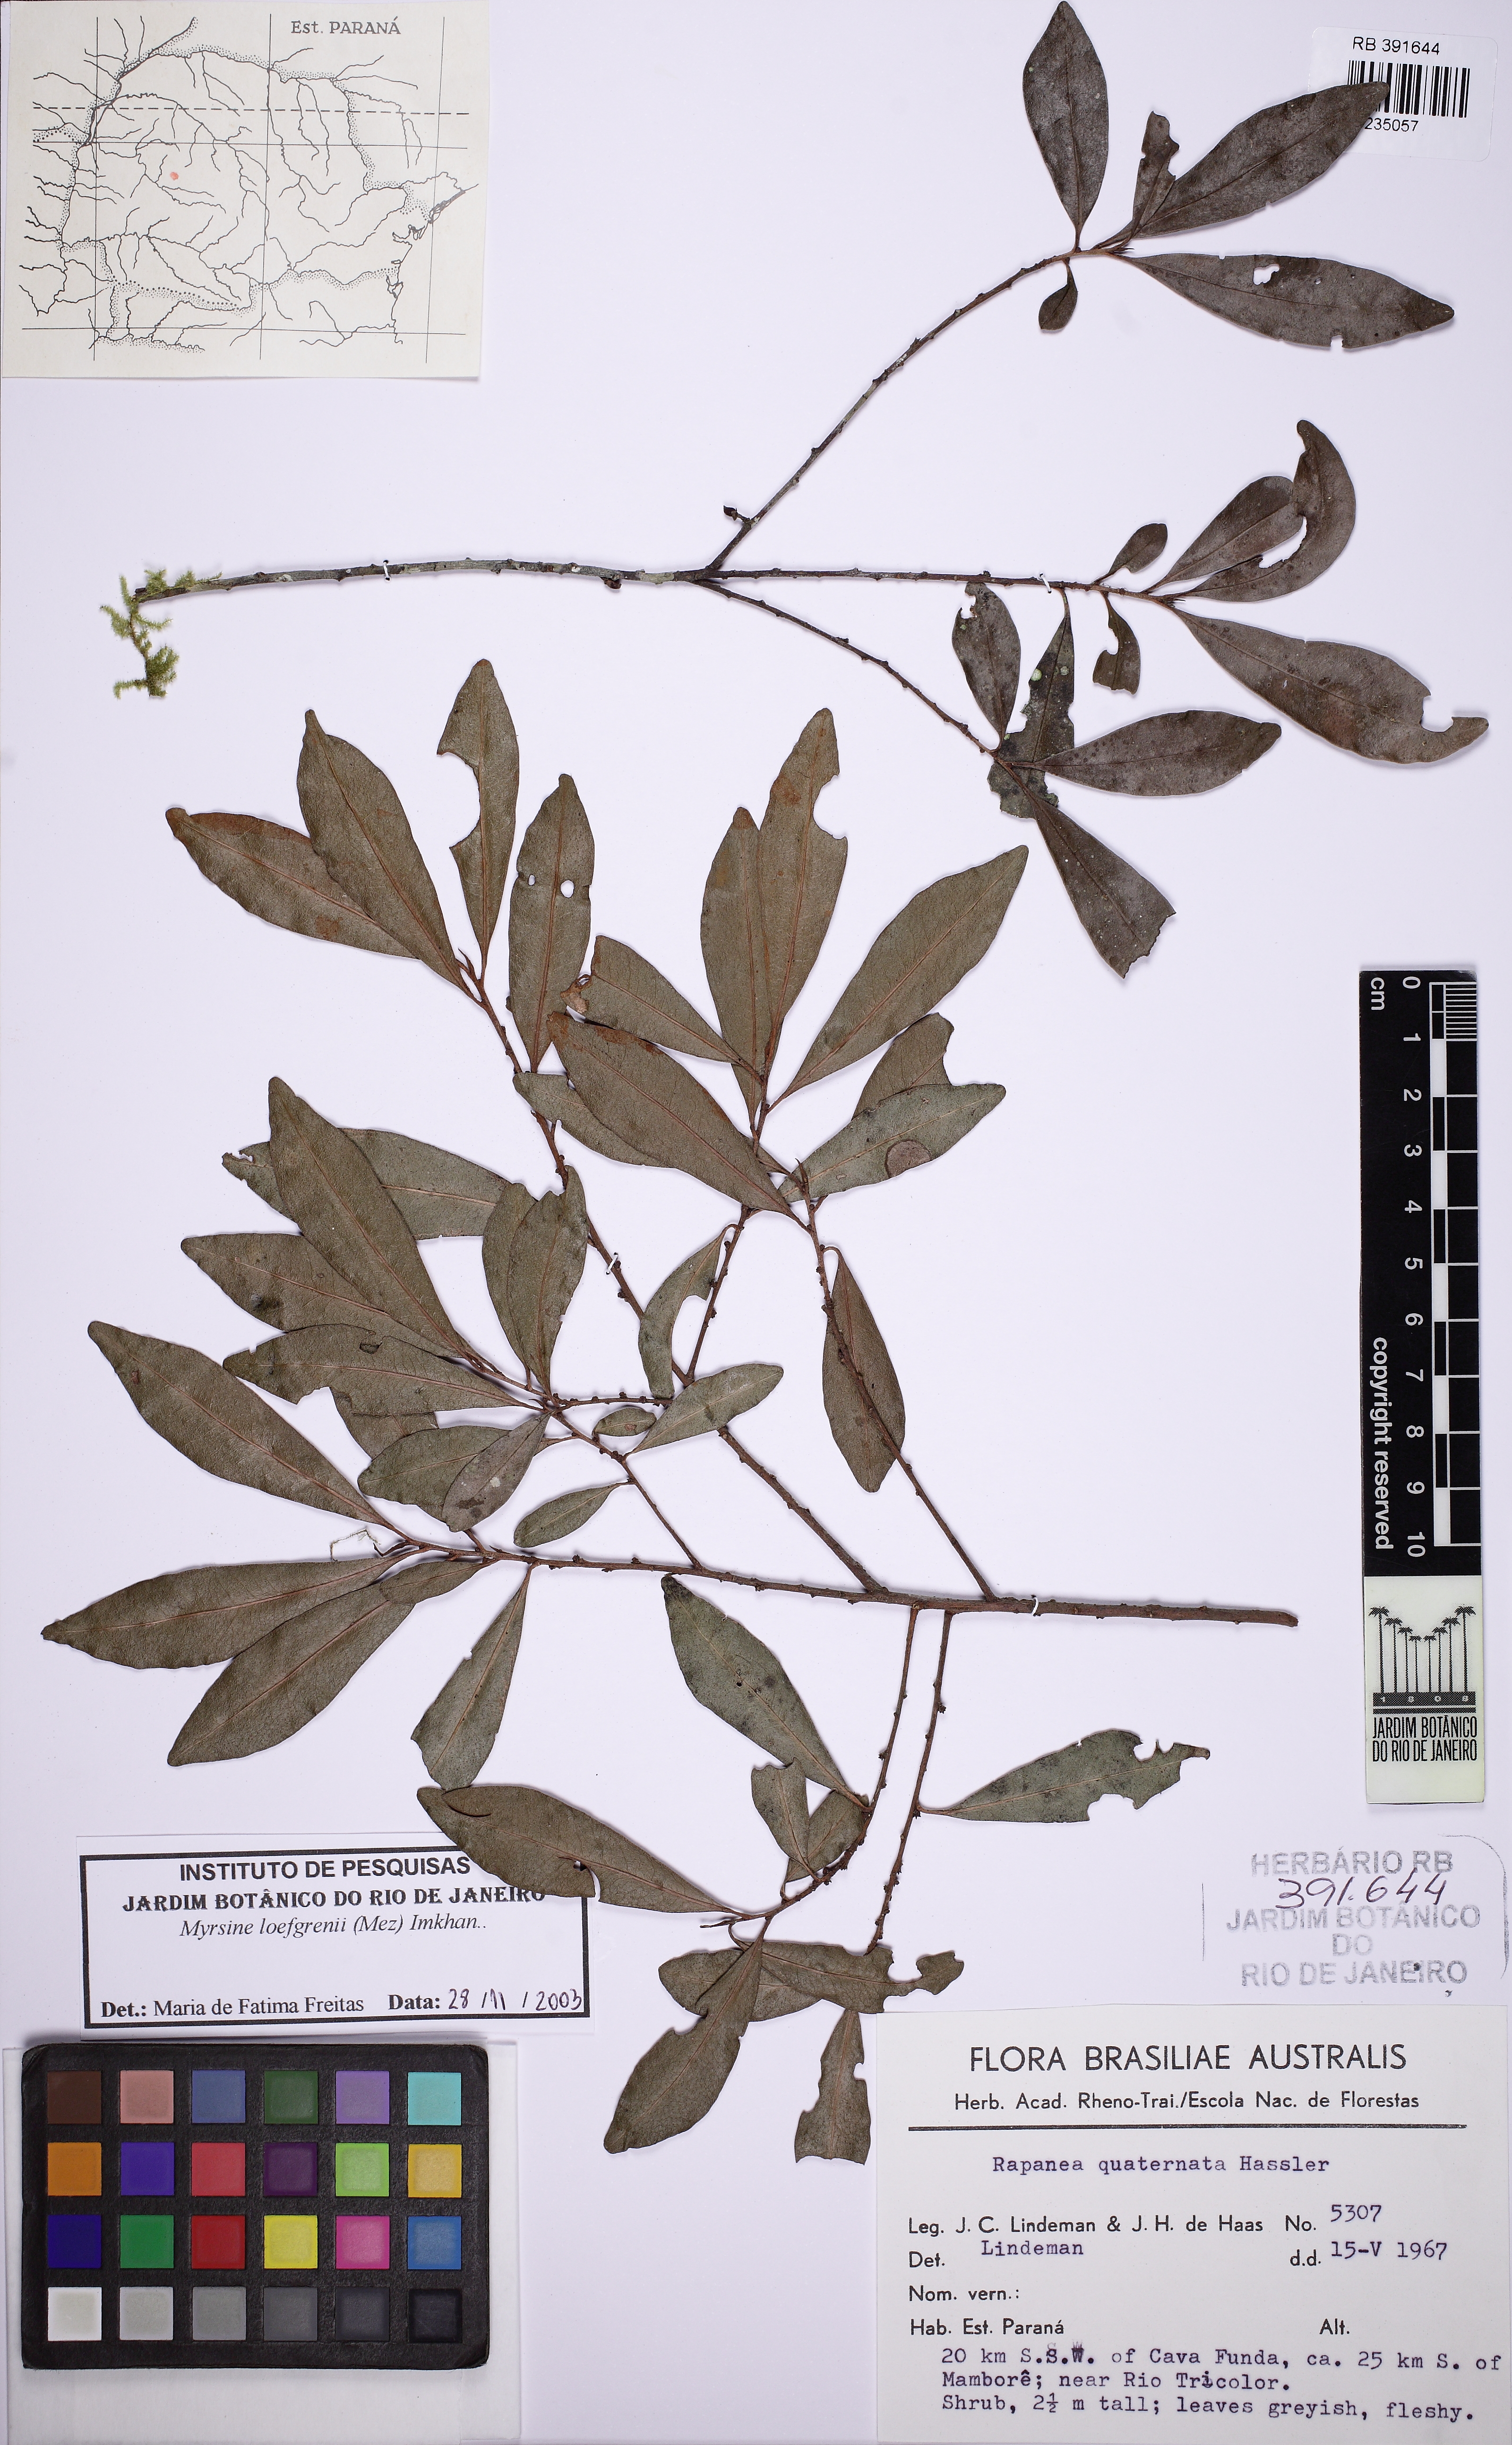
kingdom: Plantae
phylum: Tracheophyta
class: Magnoliopsida
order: Ericales
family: Primulaceae
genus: Myrsine
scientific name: Myrsine loefgrenii
